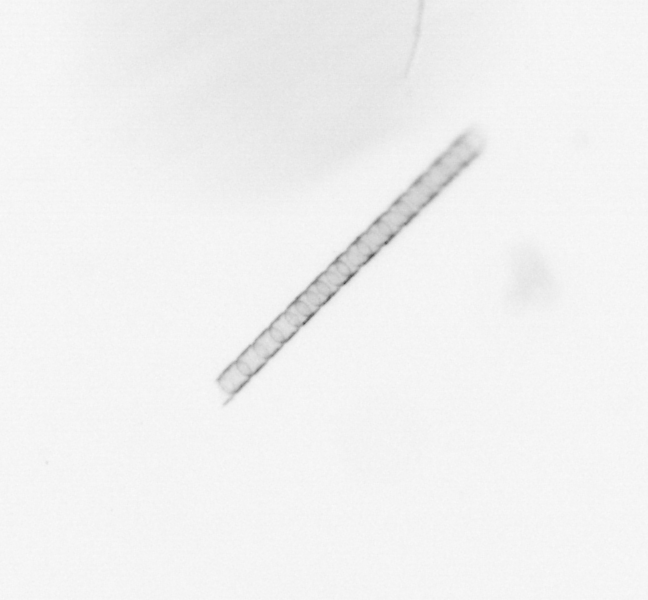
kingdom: Chromista
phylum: Ochrophyta
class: Bacillariophyceae
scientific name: Bacillariophyceae
